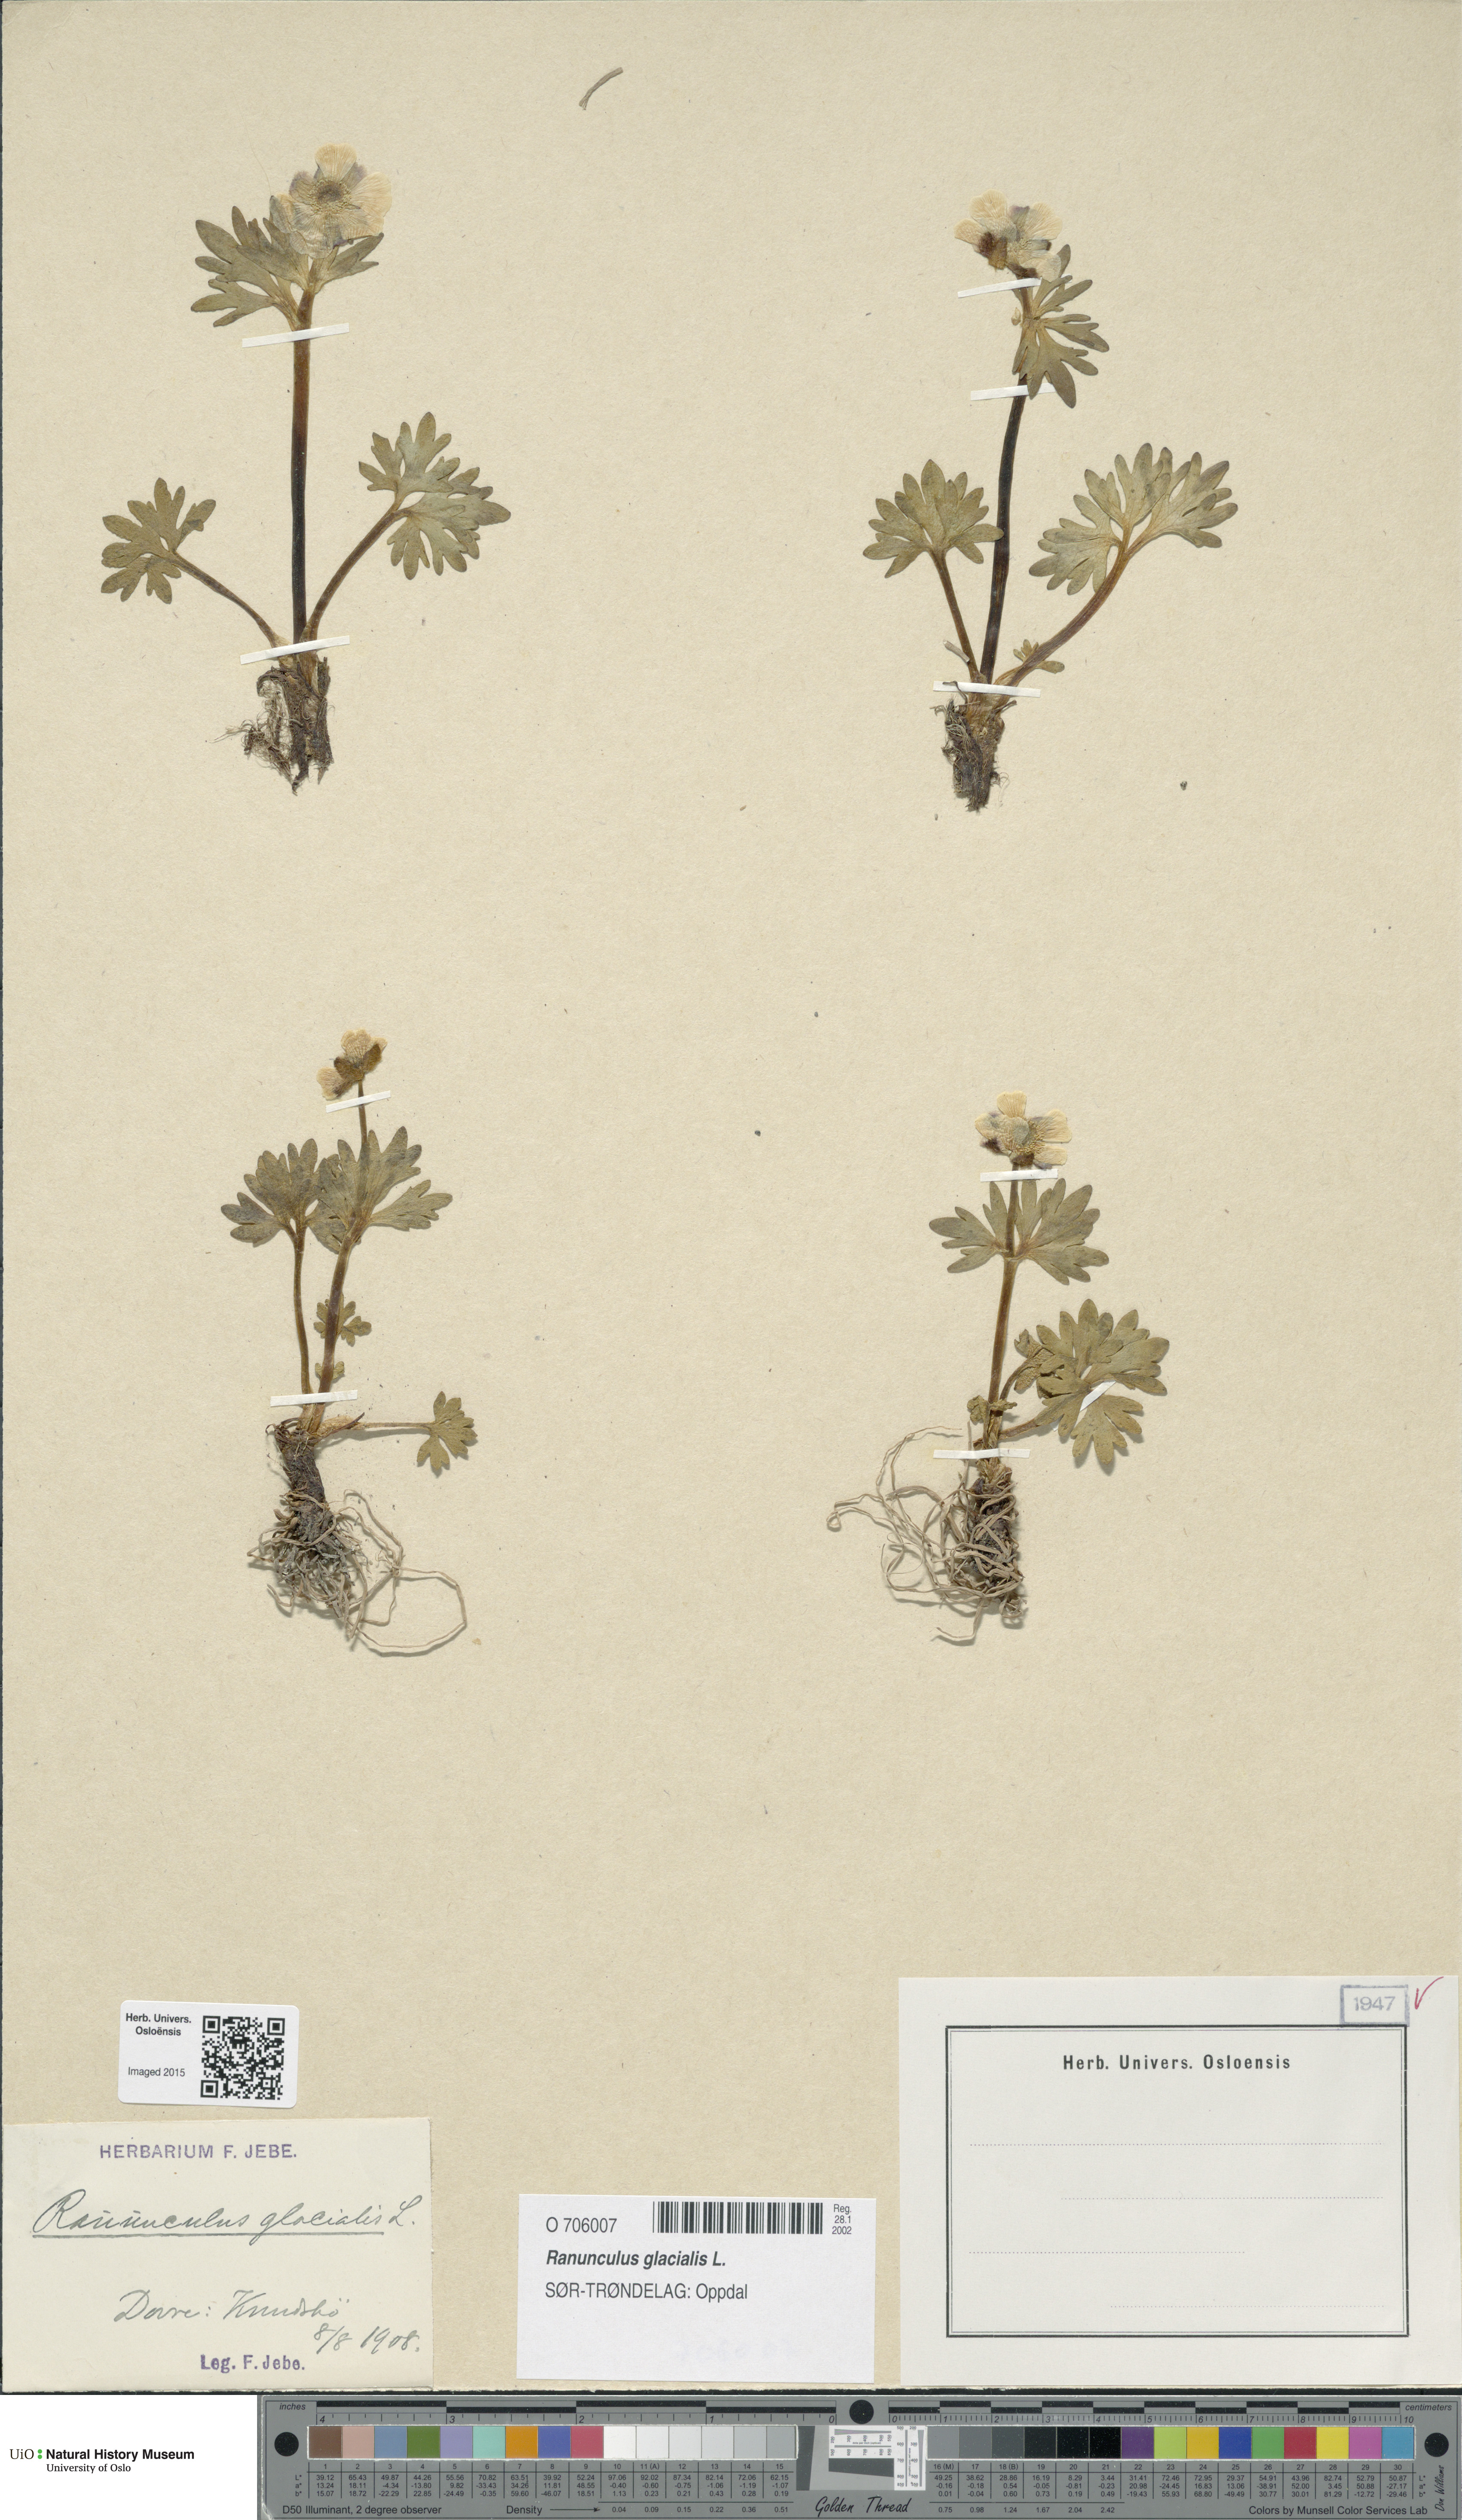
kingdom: Plantae
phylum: Tracheophyta
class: Magnoliopsida
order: Ranunculales
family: Ranunculaceae
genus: Ranunculus
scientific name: Ranunculus glacialis
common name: Glacier buttercup
